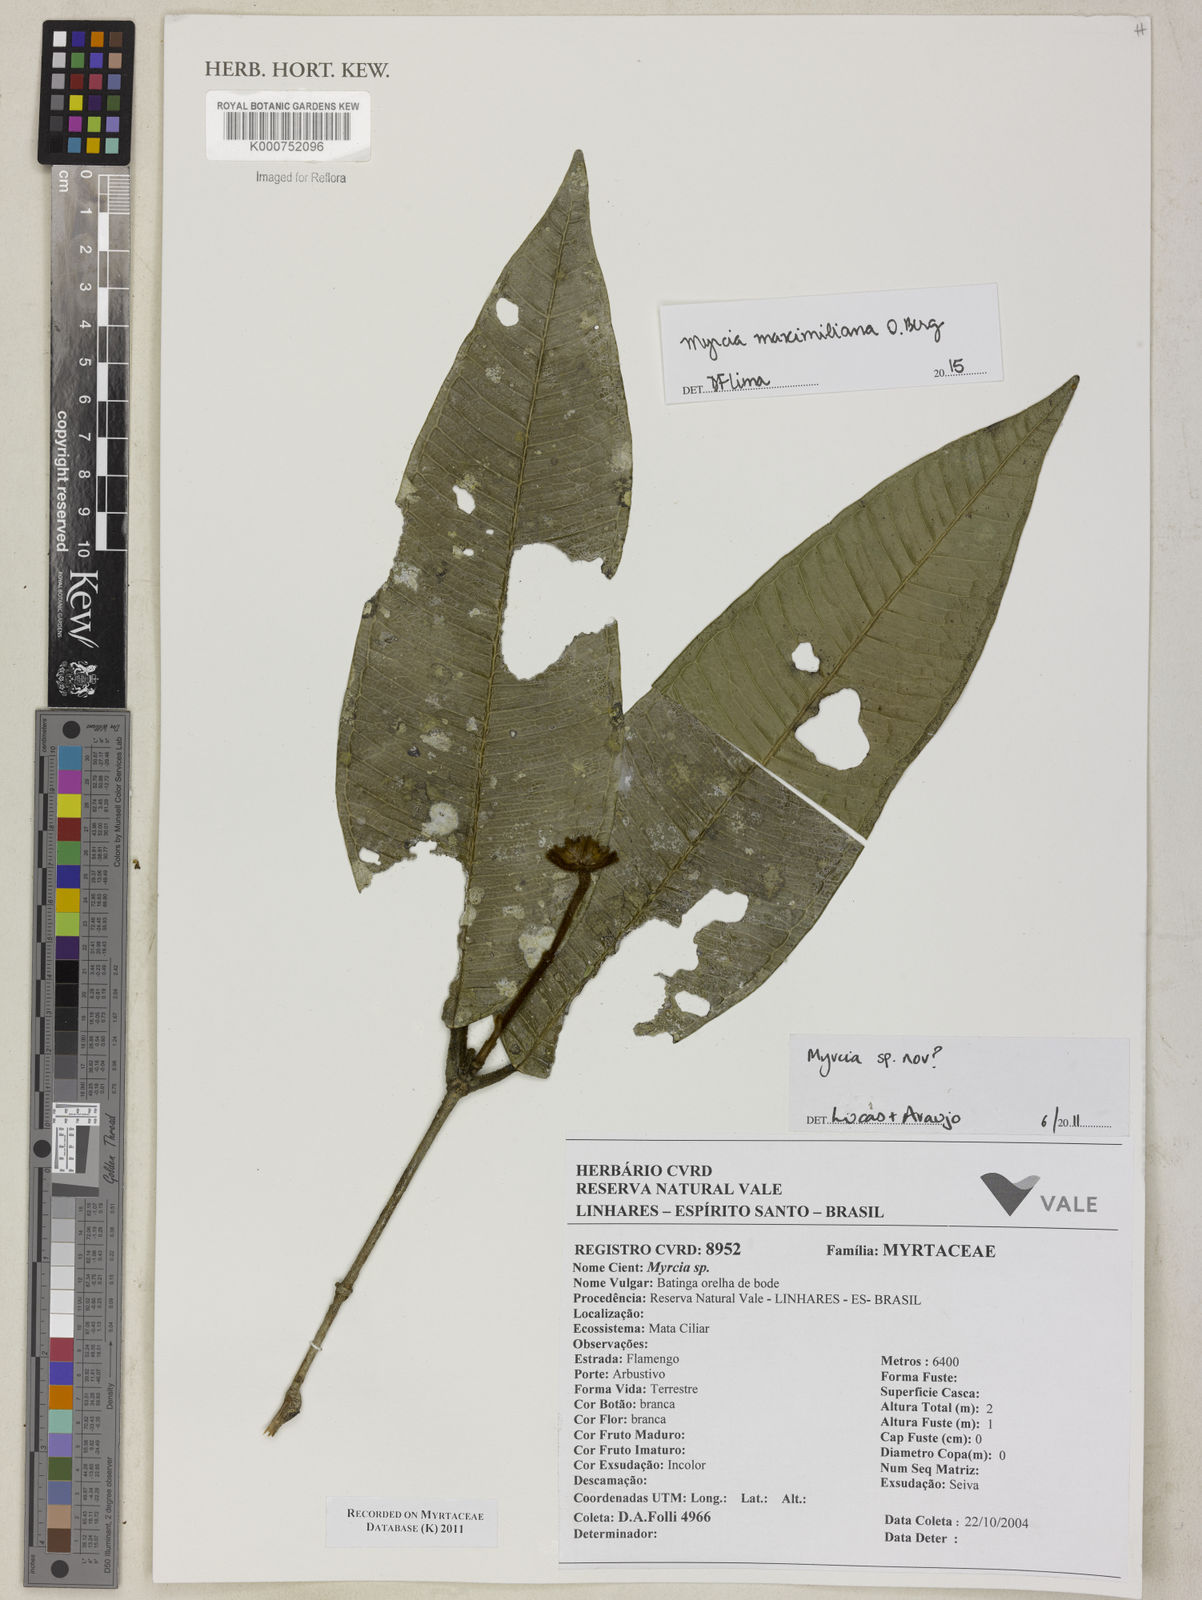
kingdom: Plantae
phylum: Tracheophyta
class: Magnoliopsida
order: Myrtales
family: Myrtaceae
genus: Myrcia
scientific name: Myrcia maximiliana
